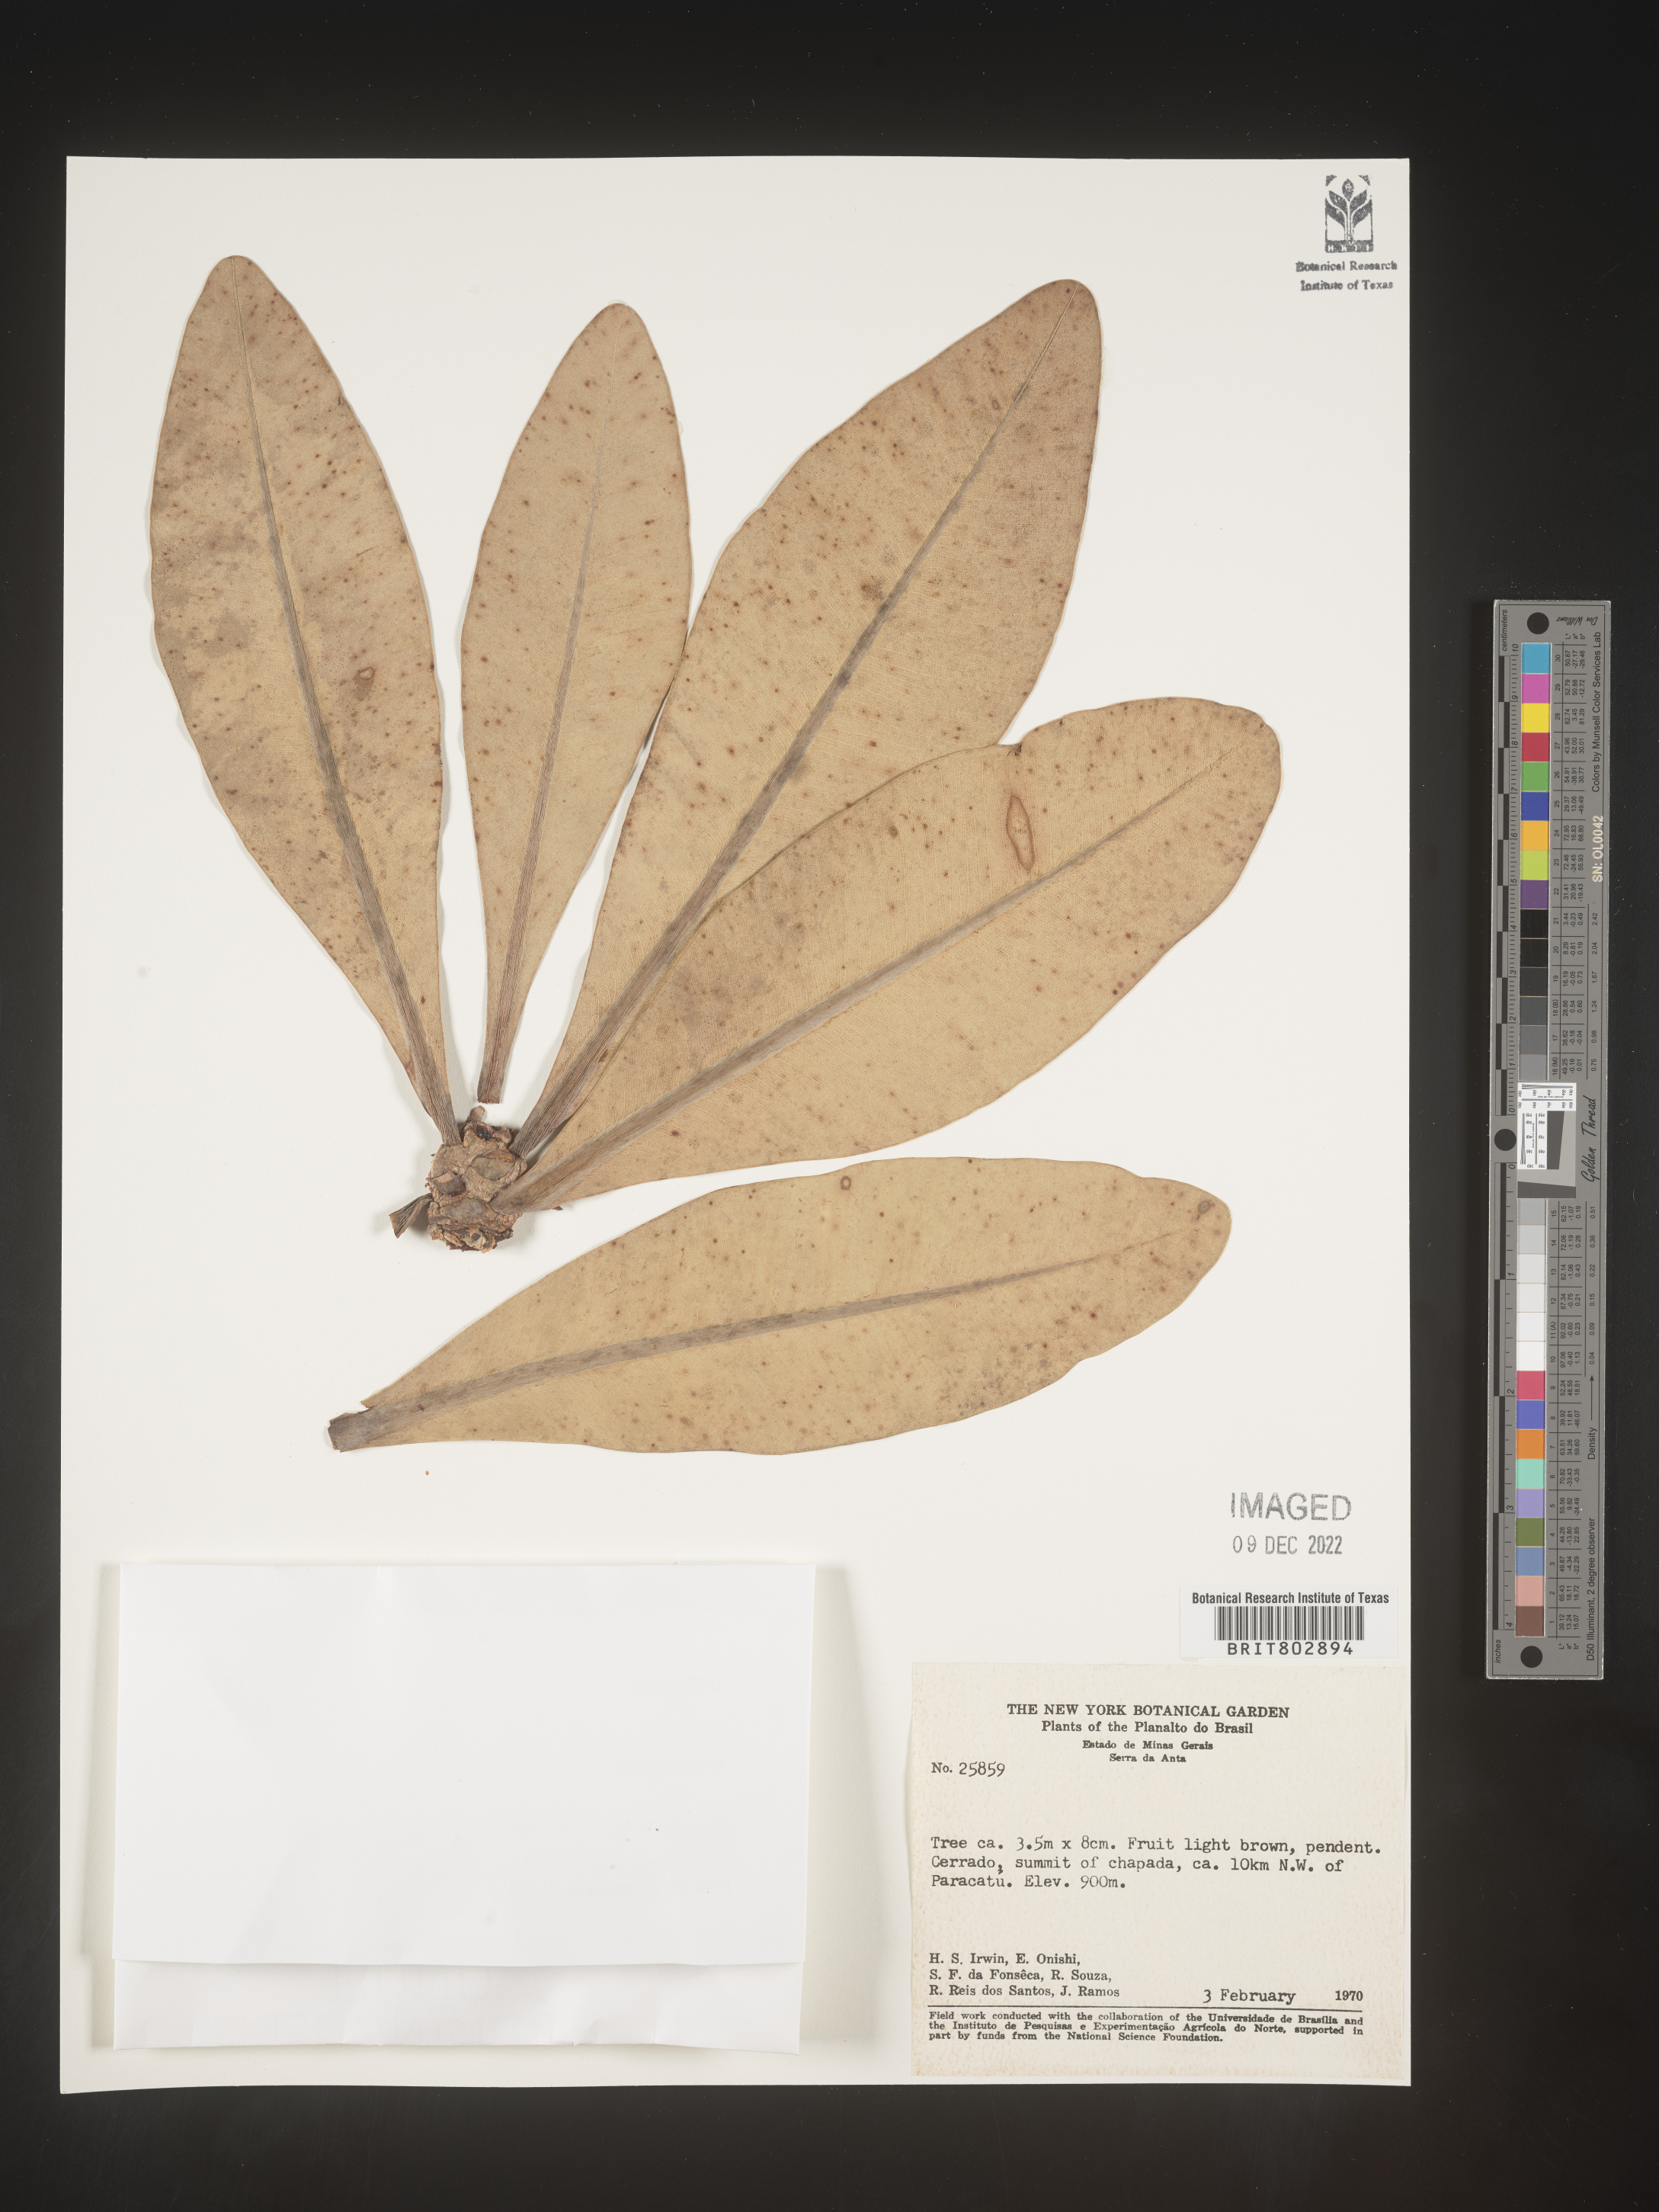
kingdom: Plantae
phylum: Tracheophyta
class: Magnoliopsida
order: Malpighiales
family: Calophyllaceae
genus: Kielmeyera
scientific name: Kielmeyera
